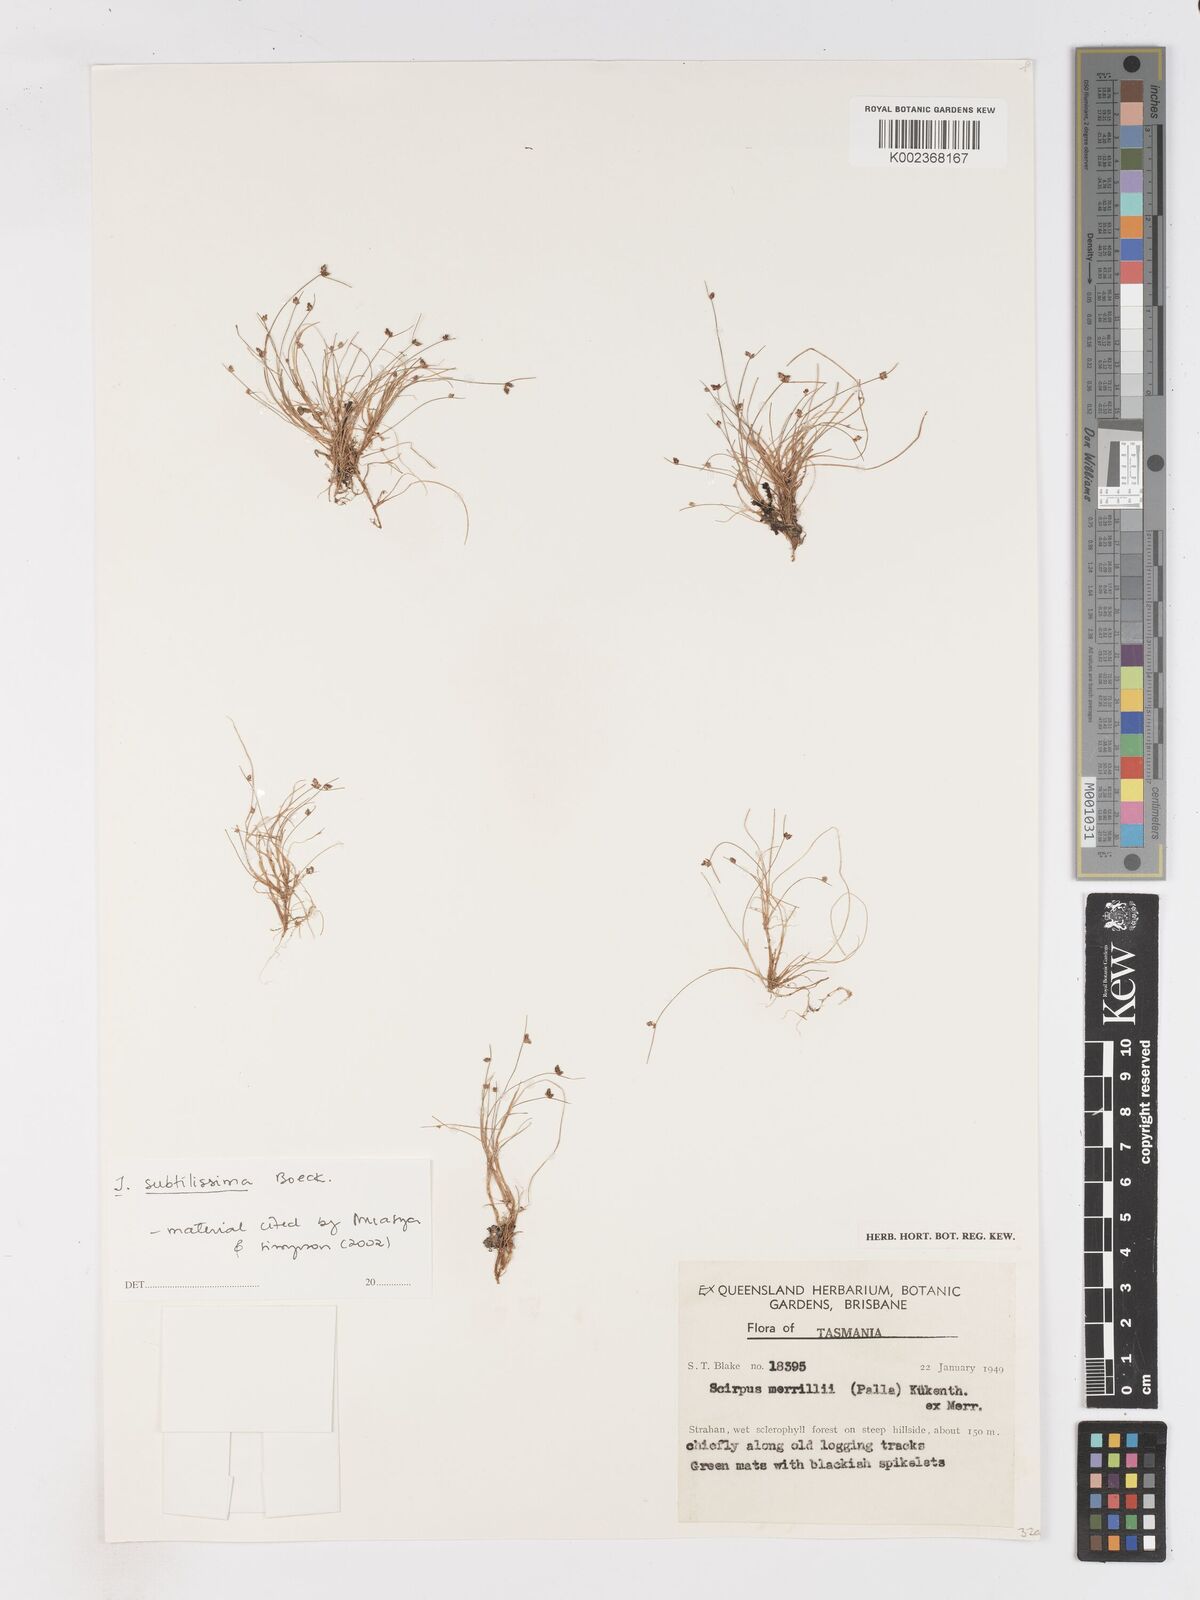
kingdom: Plantae
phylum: Tracheophyta
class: Liliopsida
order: Poales
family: Cyperaceae
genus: Isolepis
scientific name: Isolepis subtilissima
